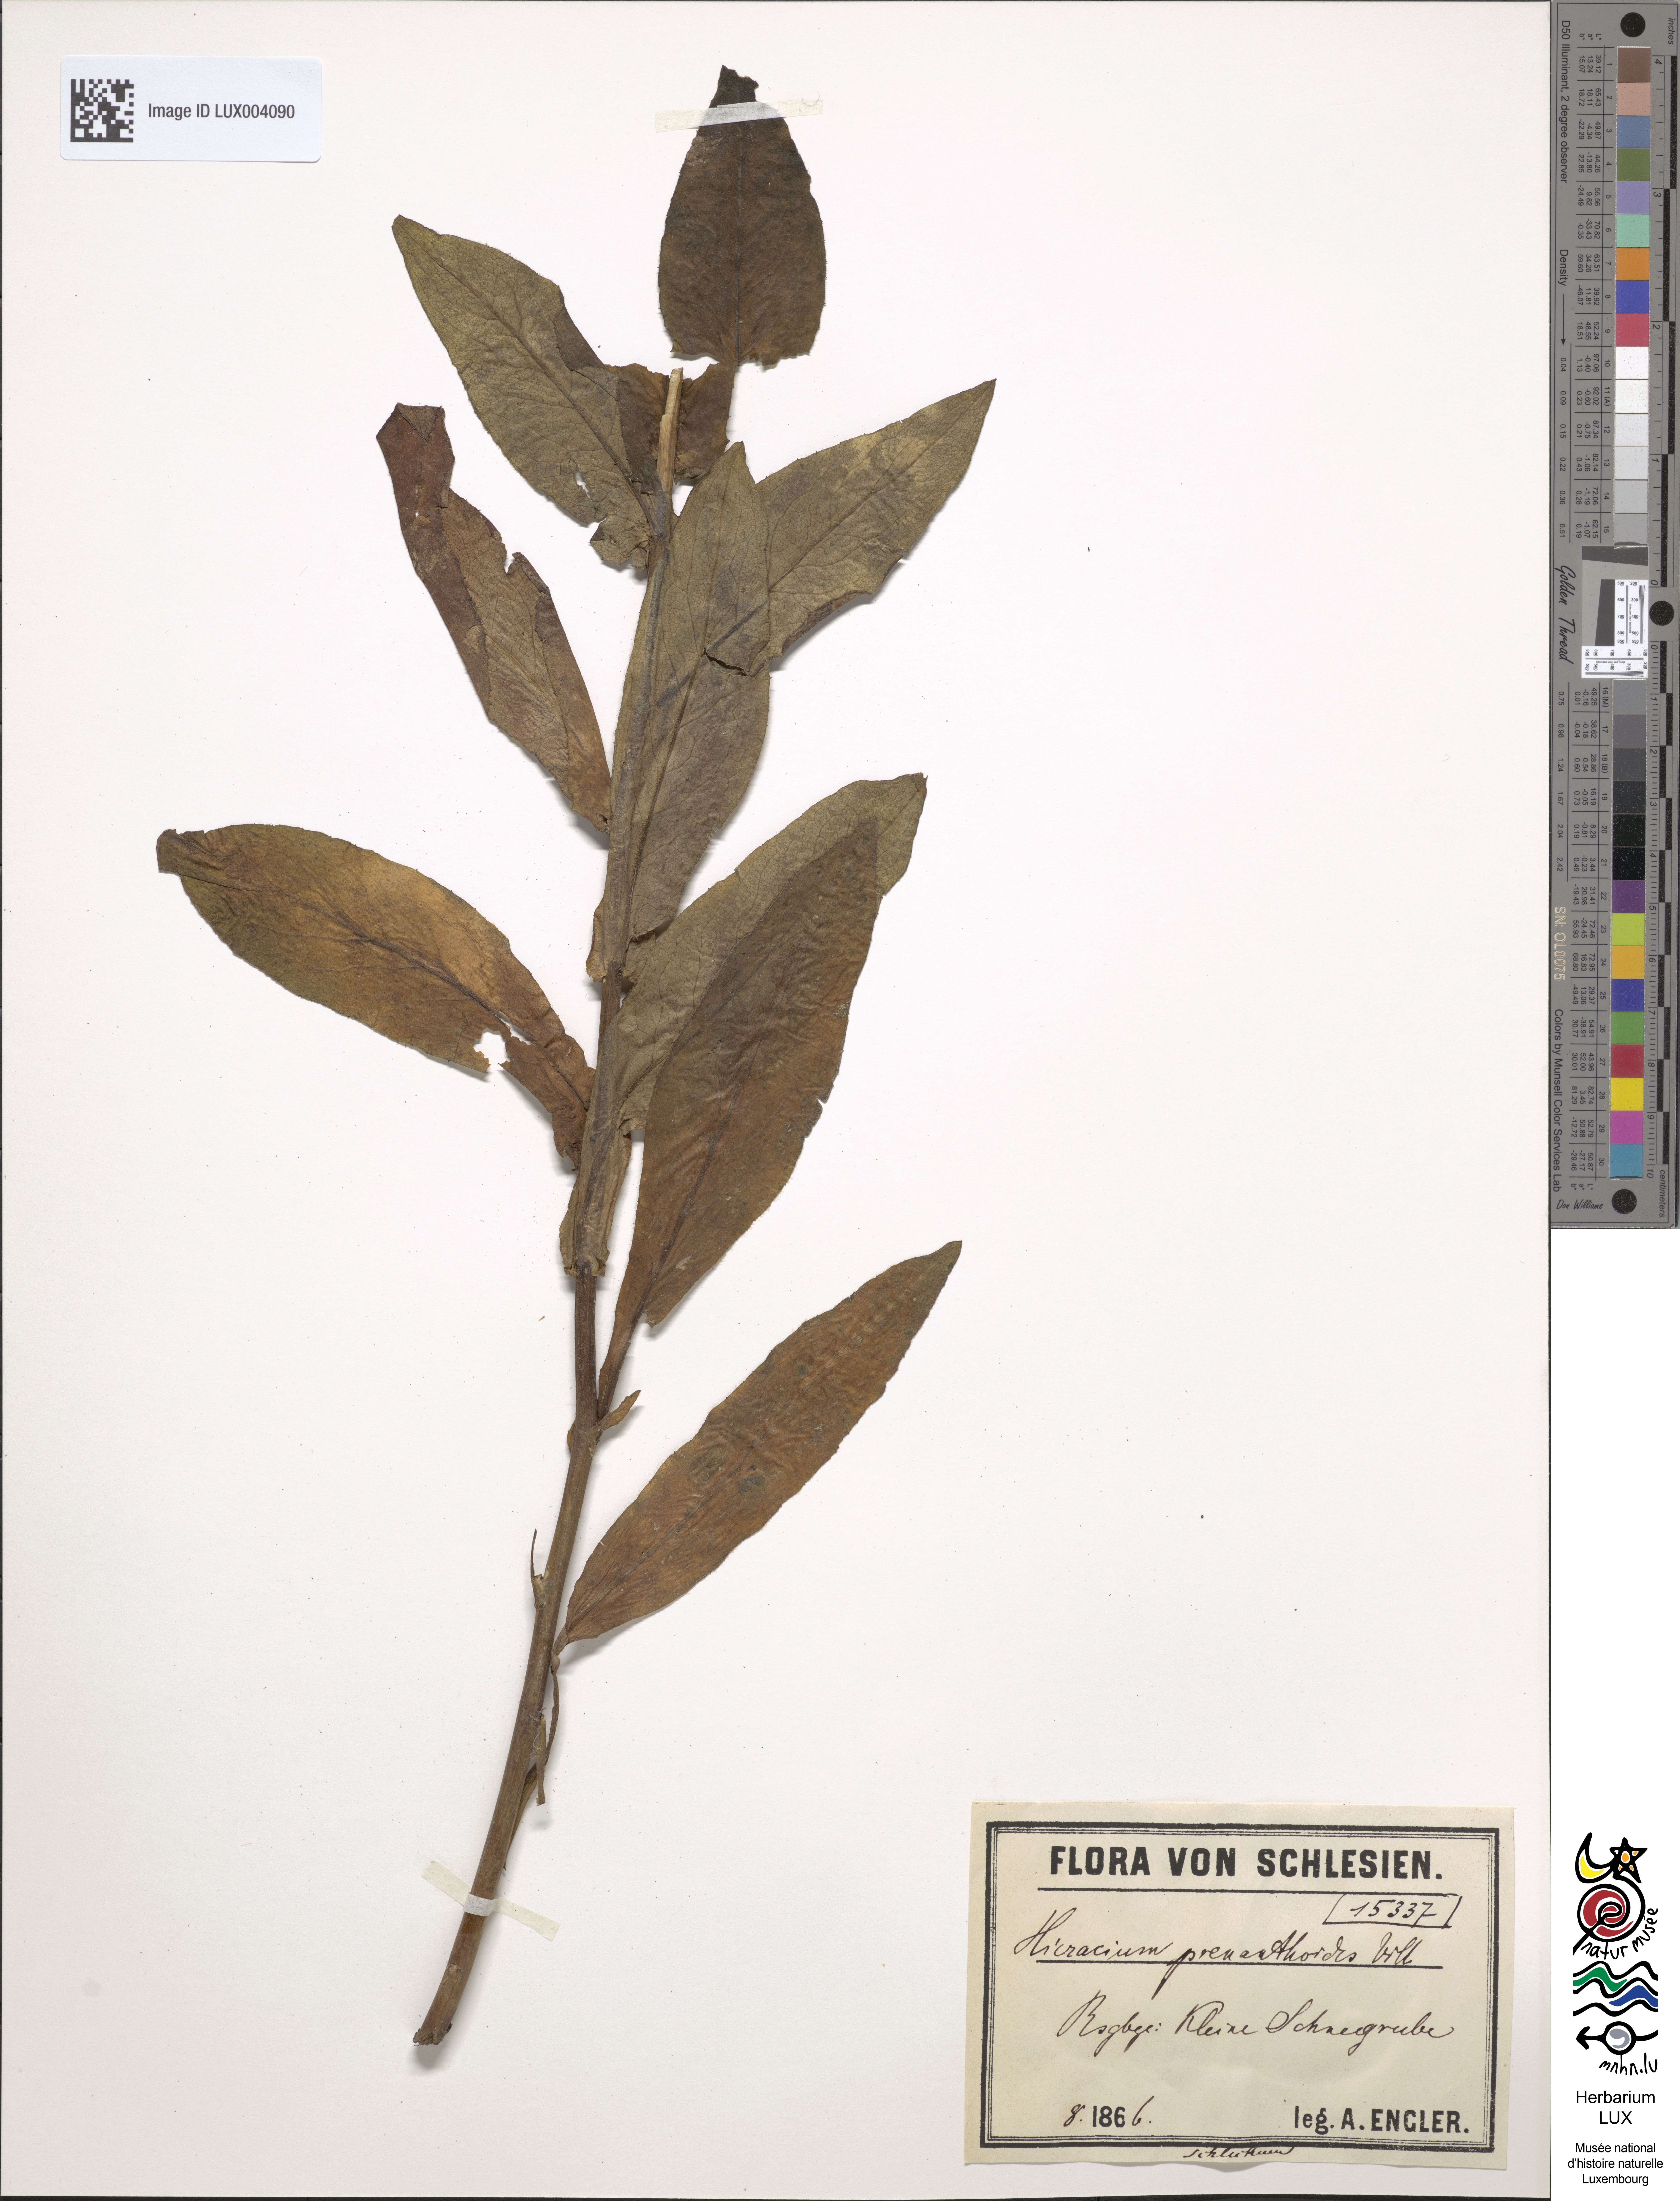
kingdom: Plantae
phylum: Tracheophyta
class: Magnoliopsida
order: Asterales
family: Asteraceae
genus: Hieracium
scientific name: Hieracium prenanthoides
